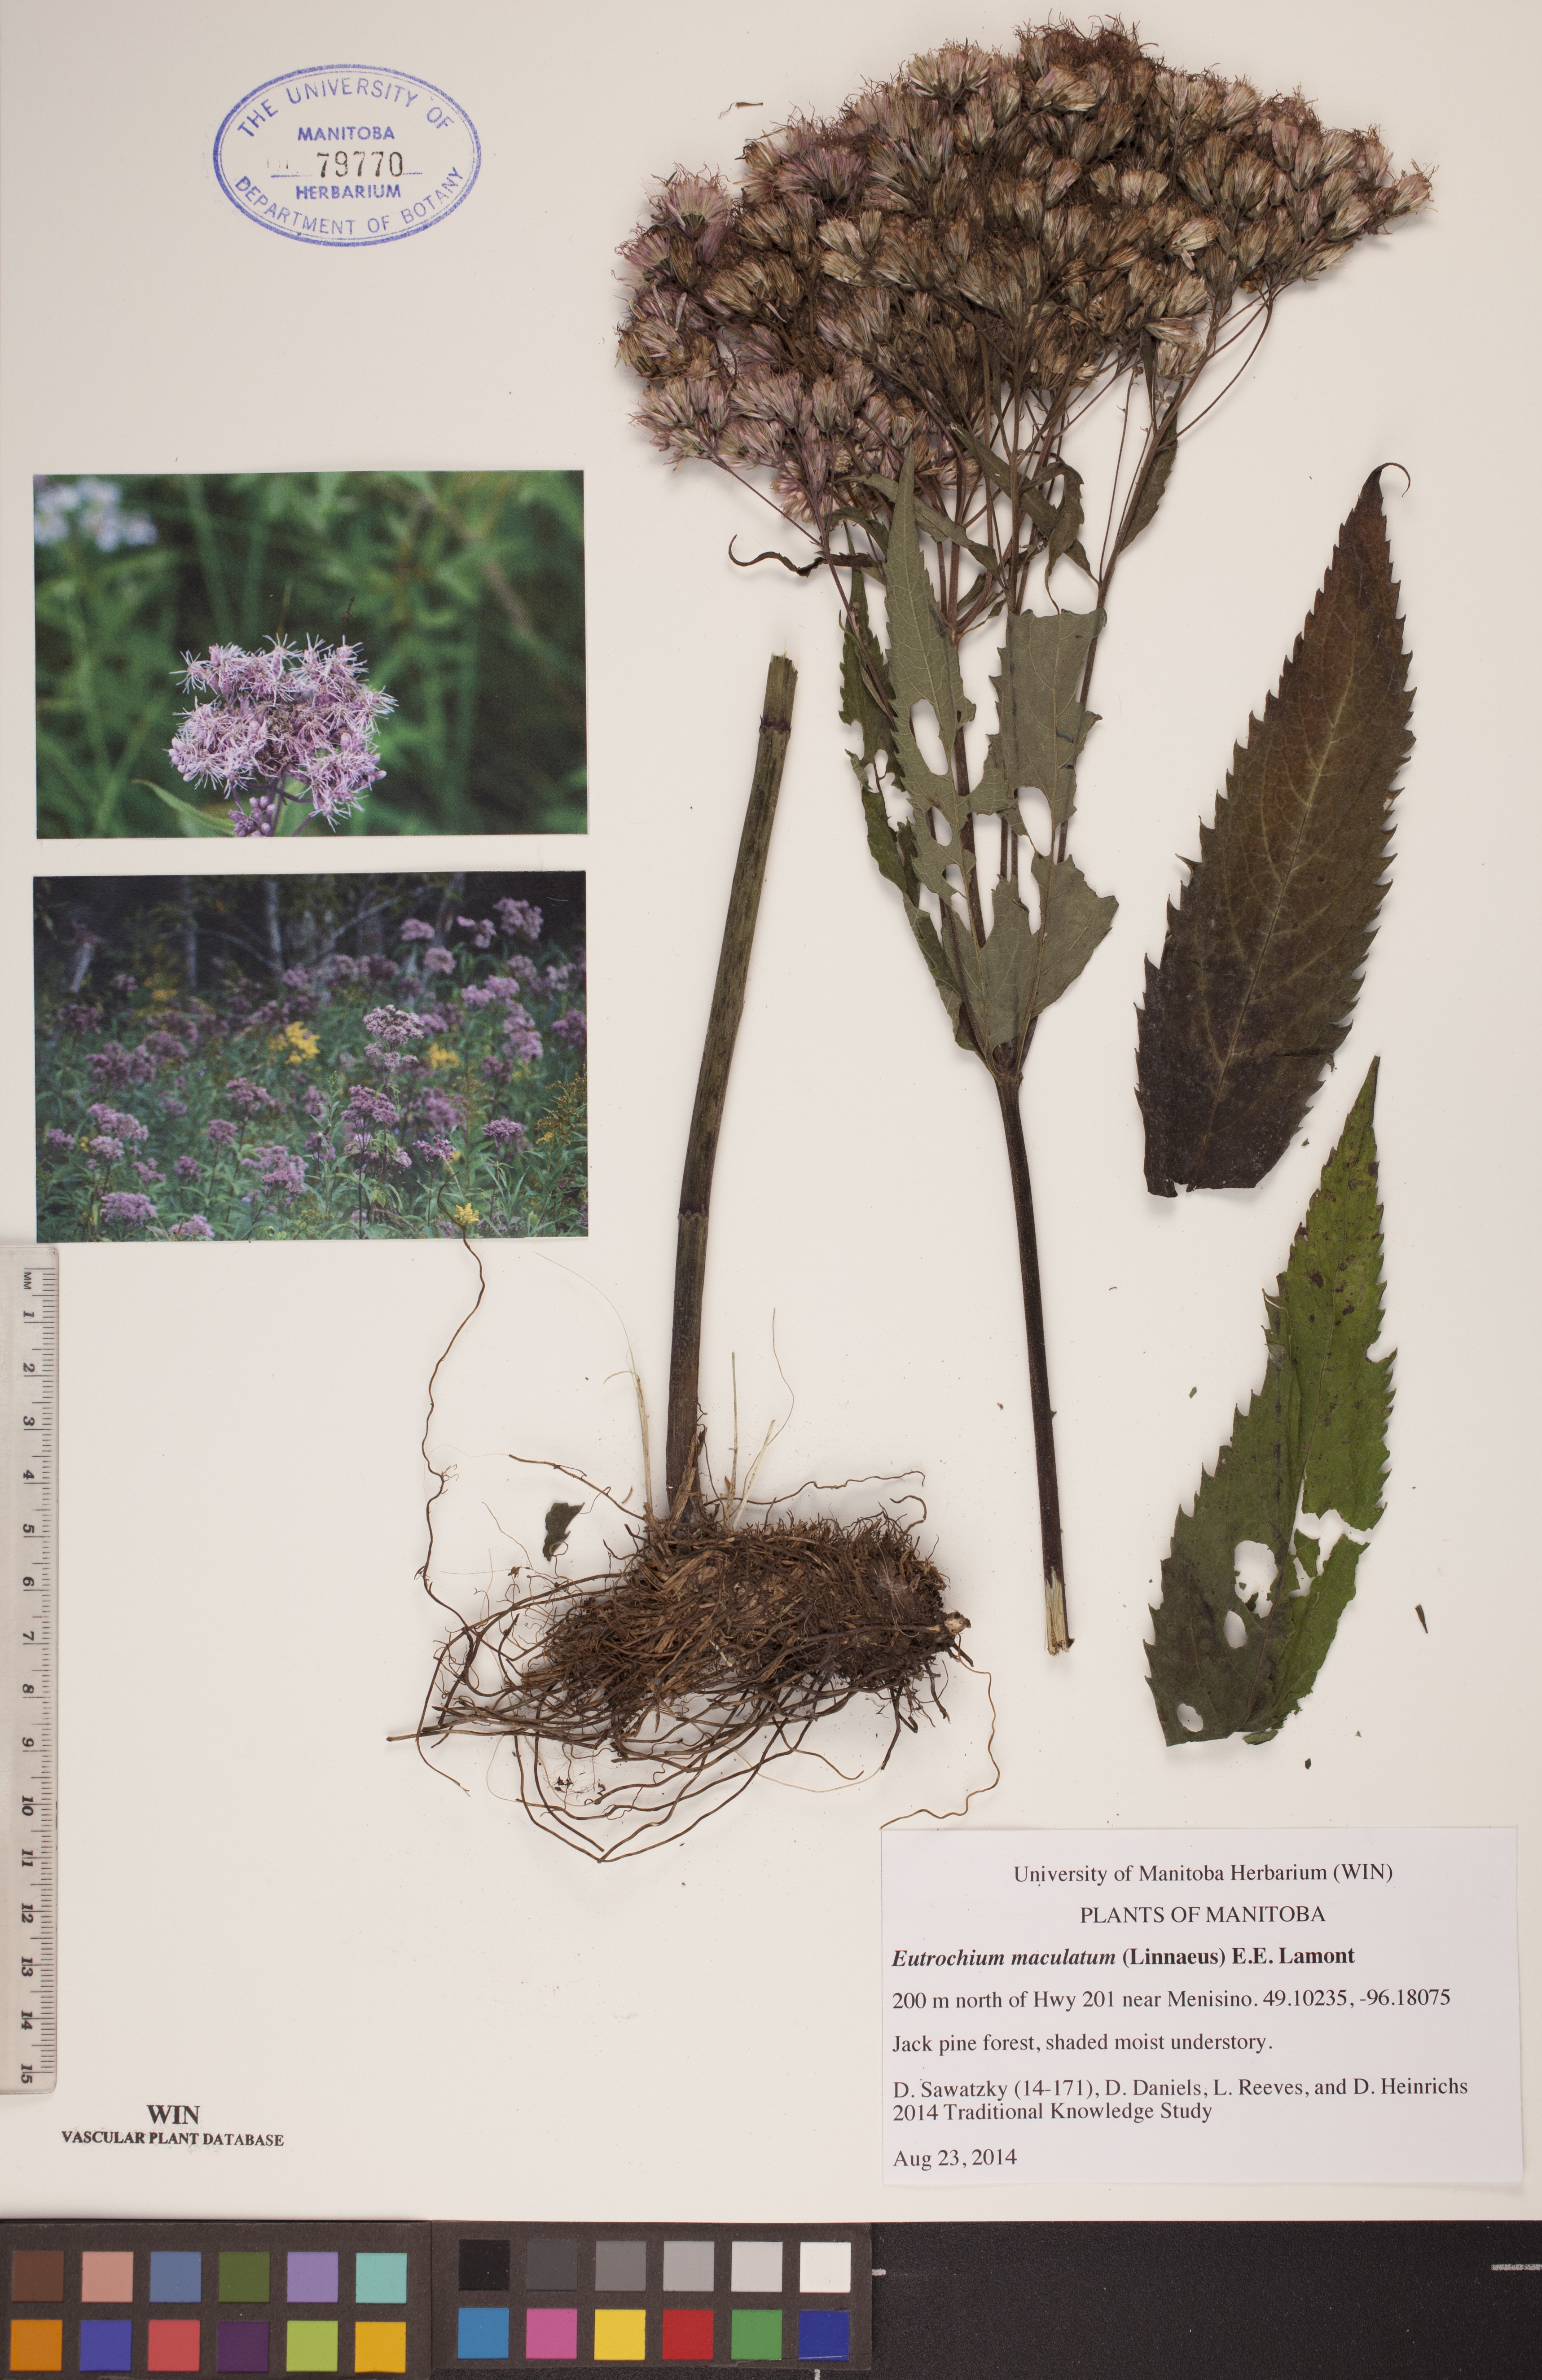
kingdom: Plantae
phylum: Tracheophyta
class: Magnoliopsida
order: Asterales
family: Asteraceae
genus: Eutrochium
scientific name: Eutrochium maculatum
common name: Spotted joe pye weed
